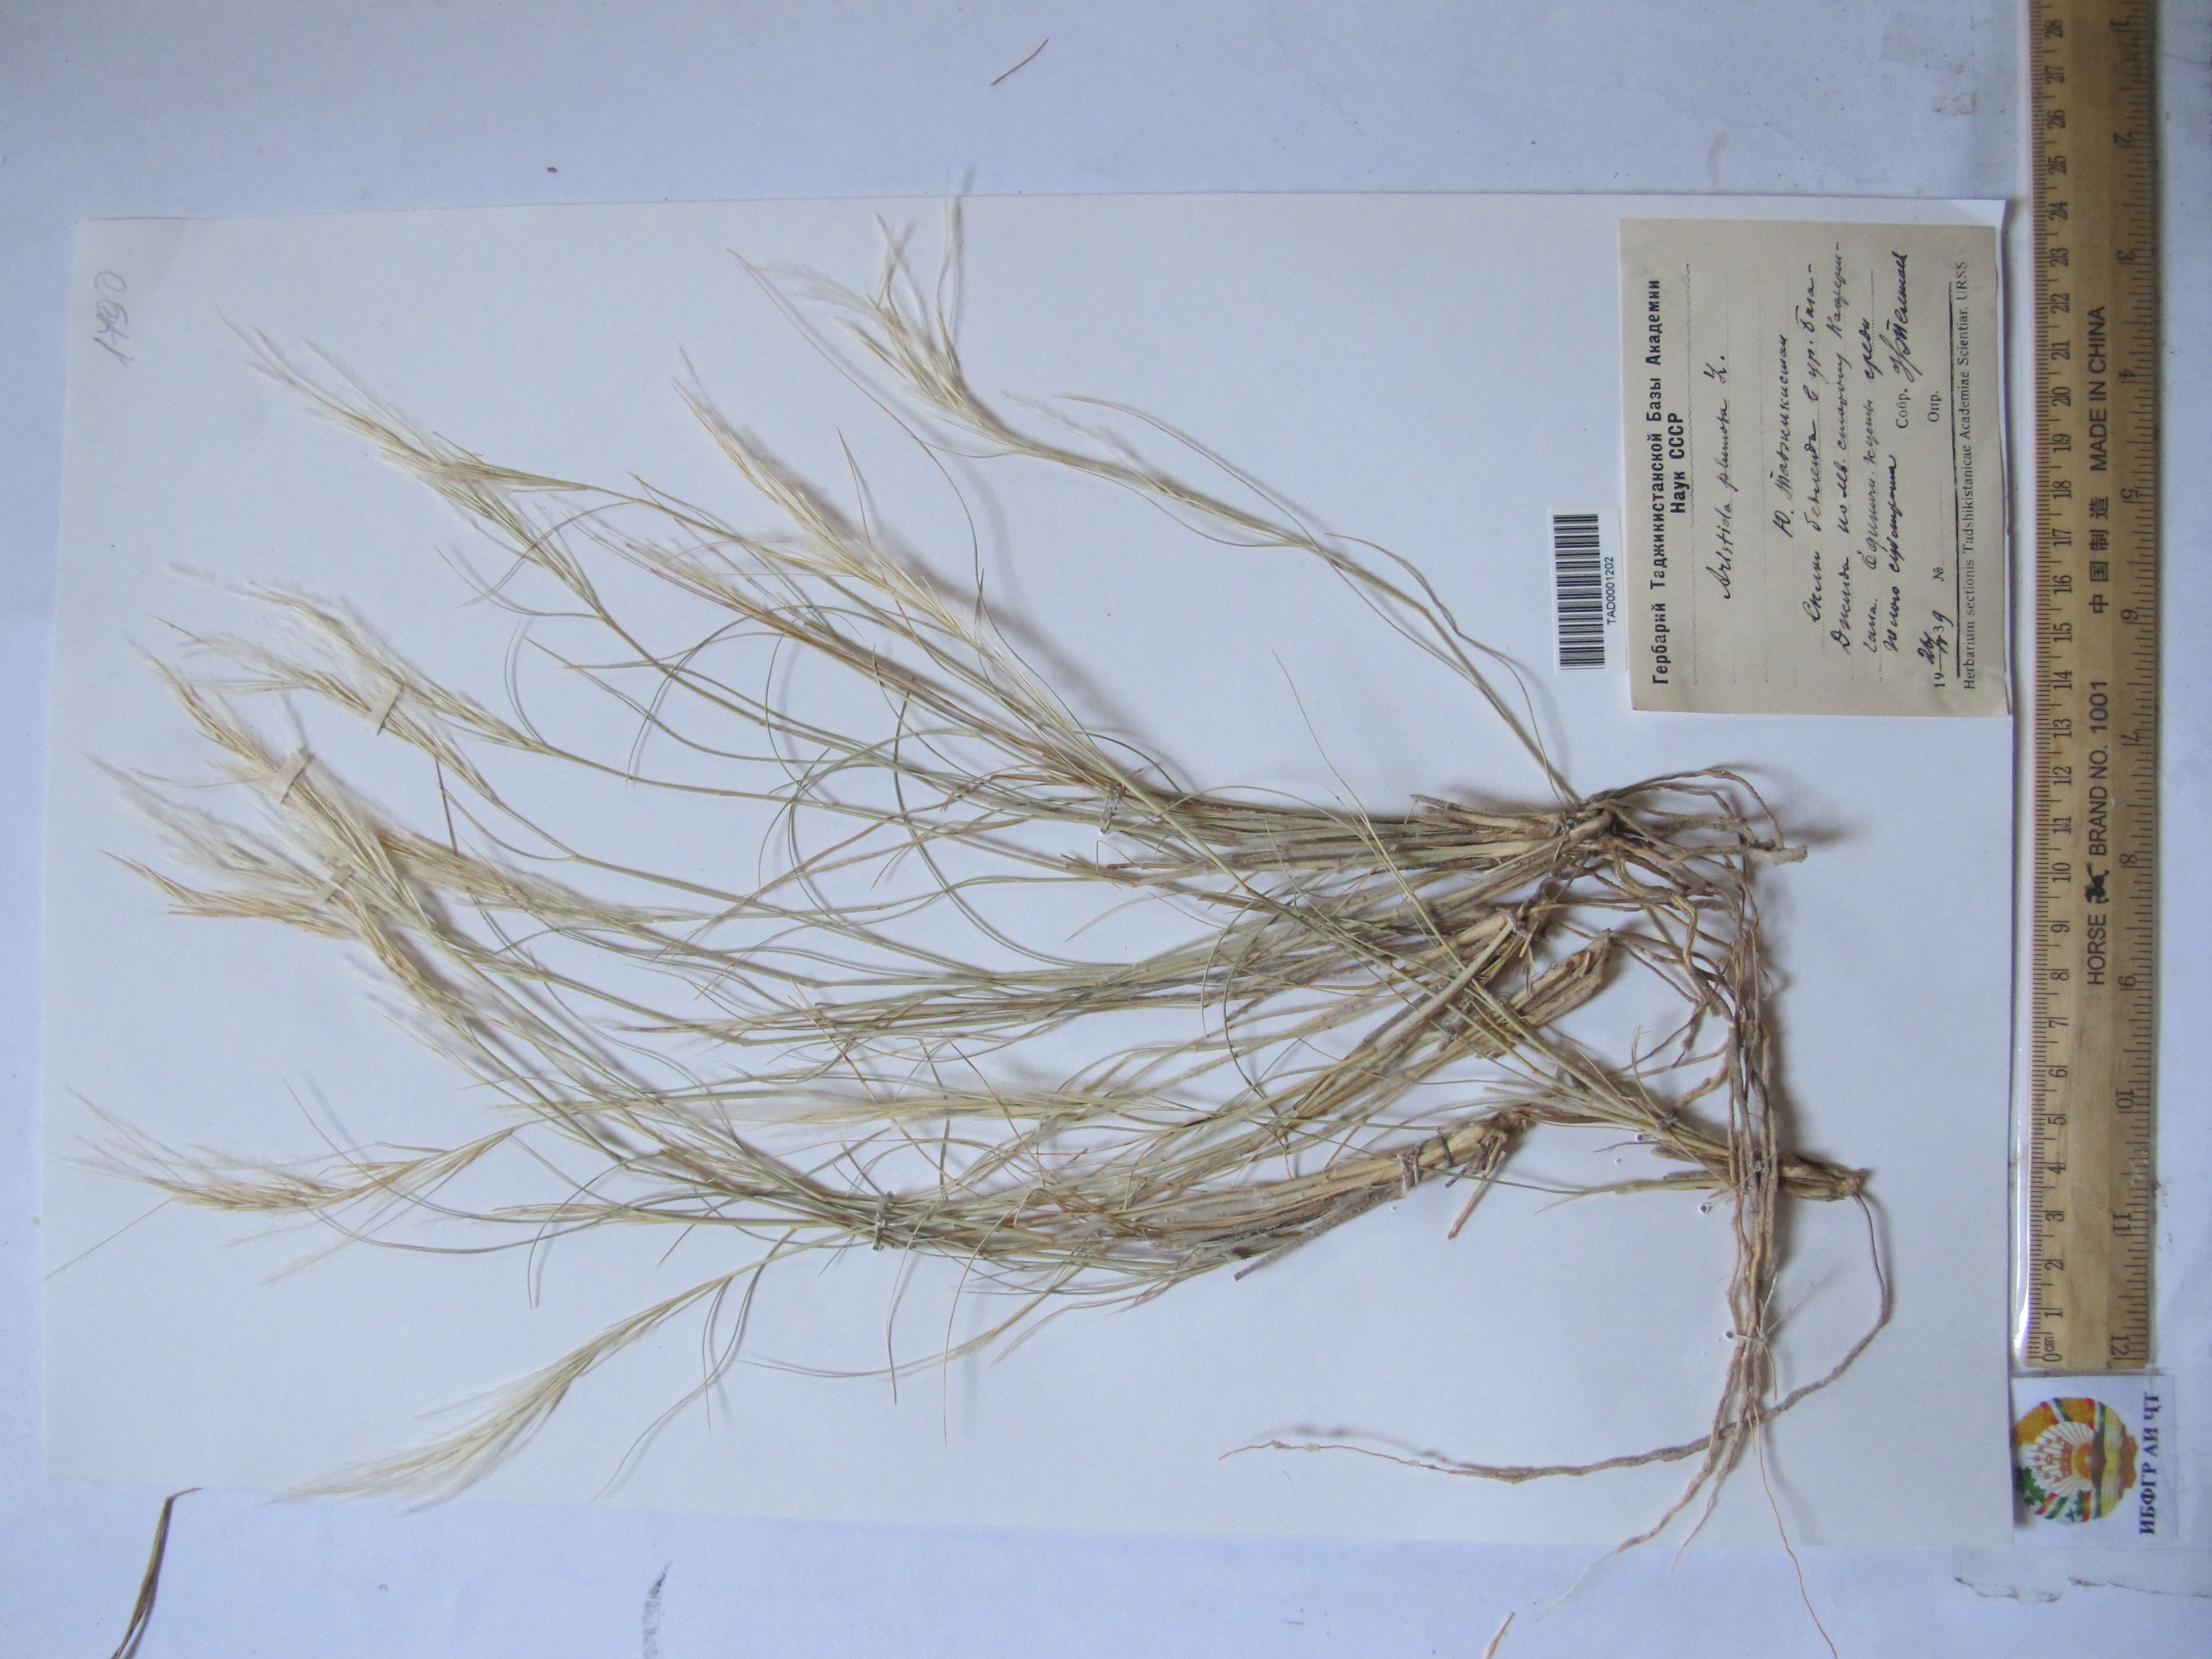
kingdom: Plantae
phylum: Tracheophyta
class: Liliopsida
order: Poales
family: Poaceae
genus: Stipagrostis
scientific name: Stipagrostis plumosa
